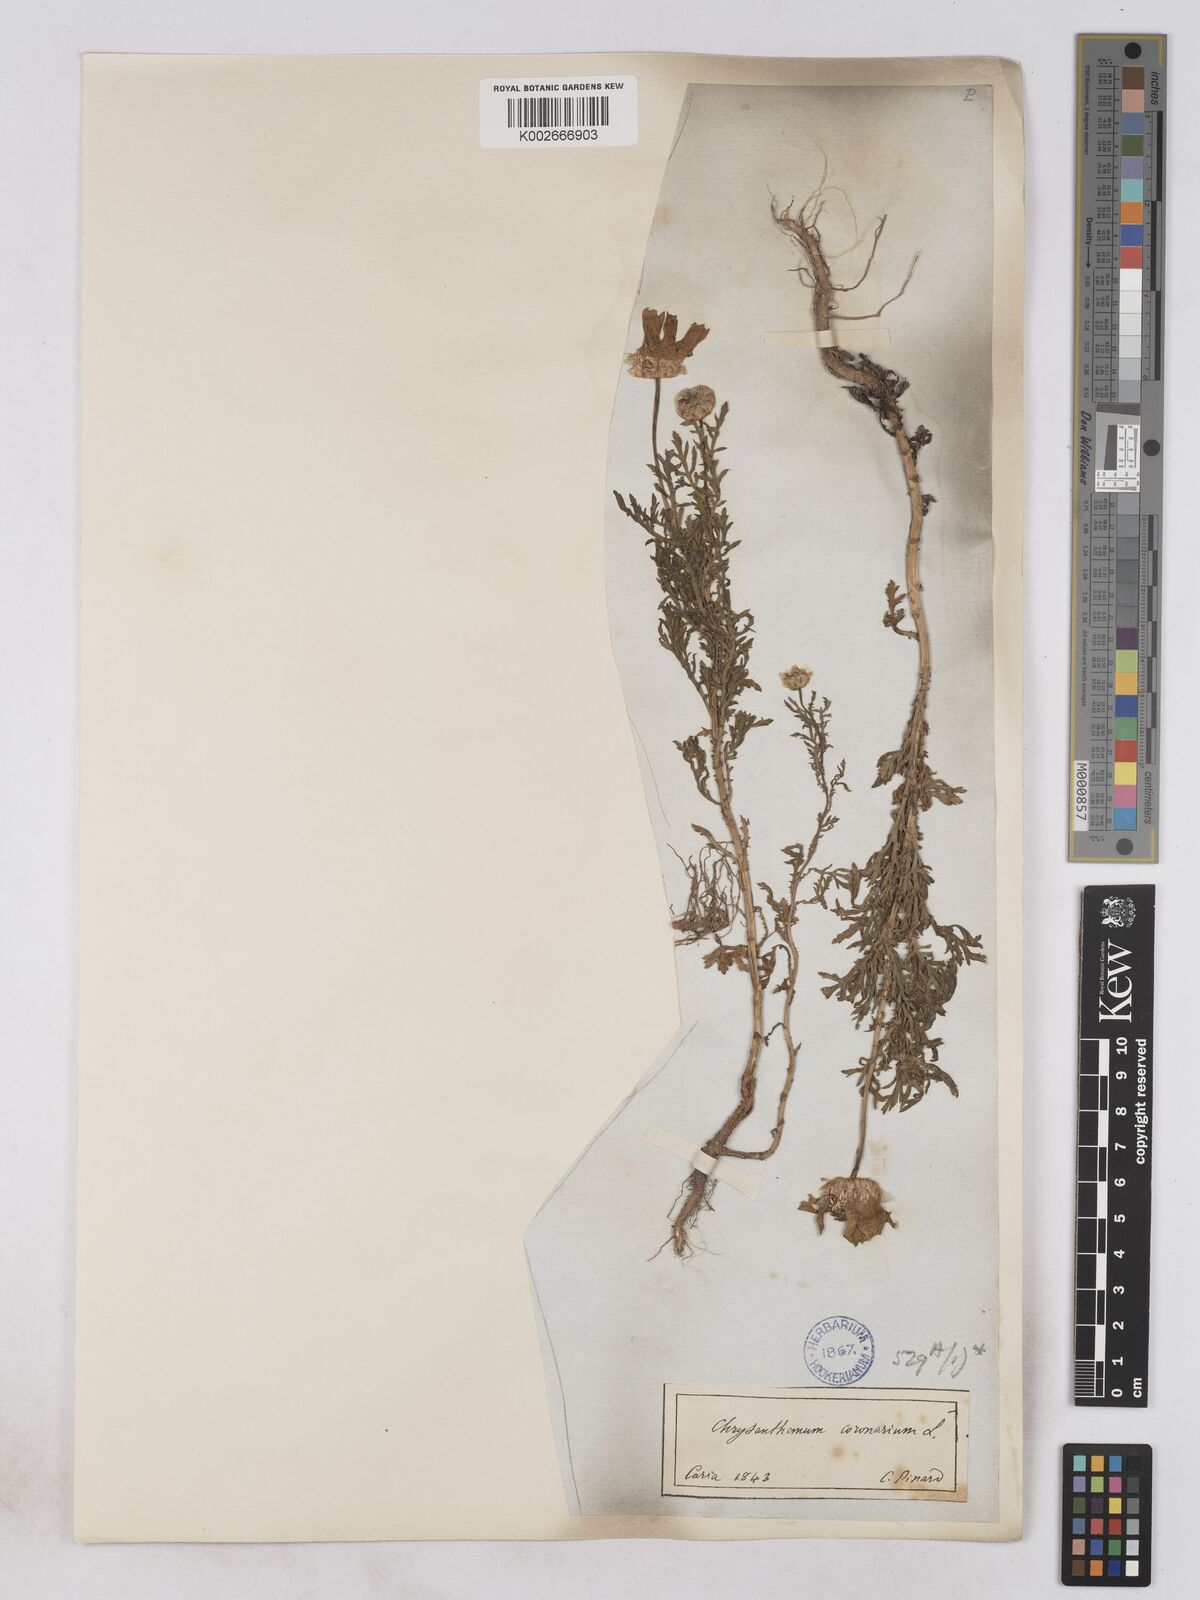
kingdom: Plantae
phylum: Tracheophyta
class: Magnoliopsida
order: Asterales
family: Asteraceae
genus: Glebionis
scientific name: Glebionis coronaria
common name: Crowndaisy
